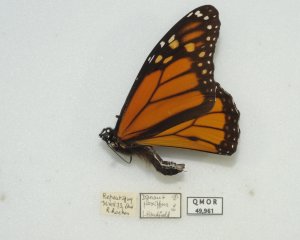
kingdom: Animalia
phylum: Arthropoda
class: Insecta
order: Lepidoptera
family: Nymphalidae
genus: Danaus
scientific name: Danaus plexippus
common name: Monarch
